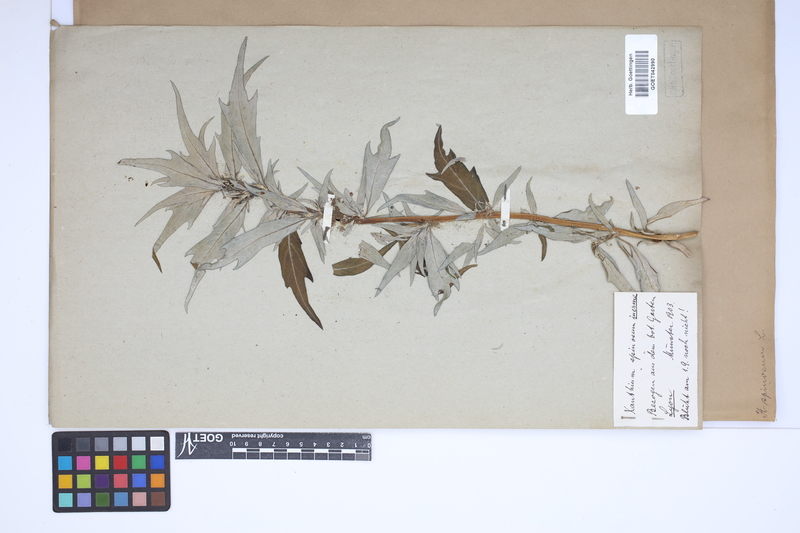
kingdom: Plantae
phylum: Tracheophyta
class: Magnoliopsida
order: Asterales
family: Asteraceae
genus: Xanthium
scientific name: Xanthium spinosum
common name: Spiny cocklebur
